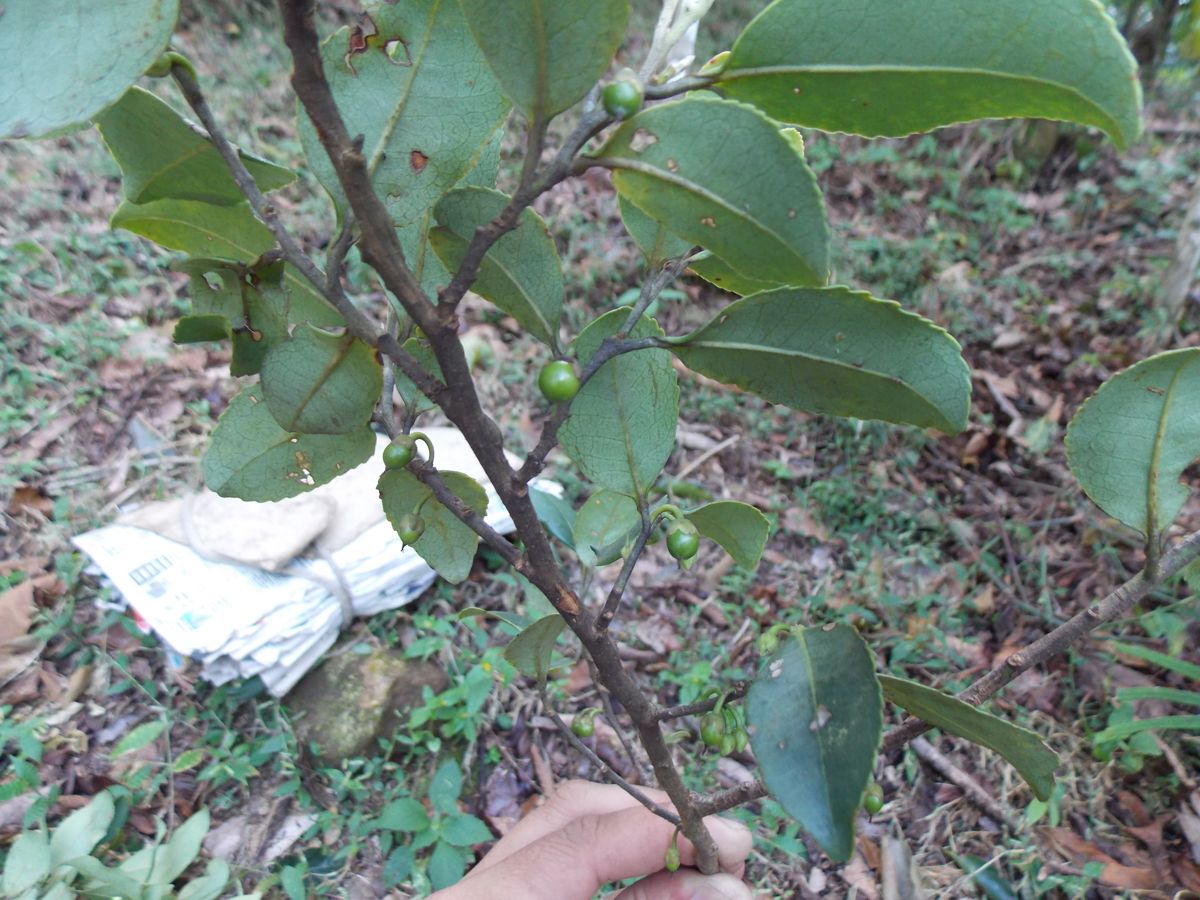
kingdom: Plantae
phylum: Tracheophyta
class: Magnoliopsida
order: Ericales
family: Pentaphylacaceae
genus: Cleyera
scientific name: Cleyera theaeoides
